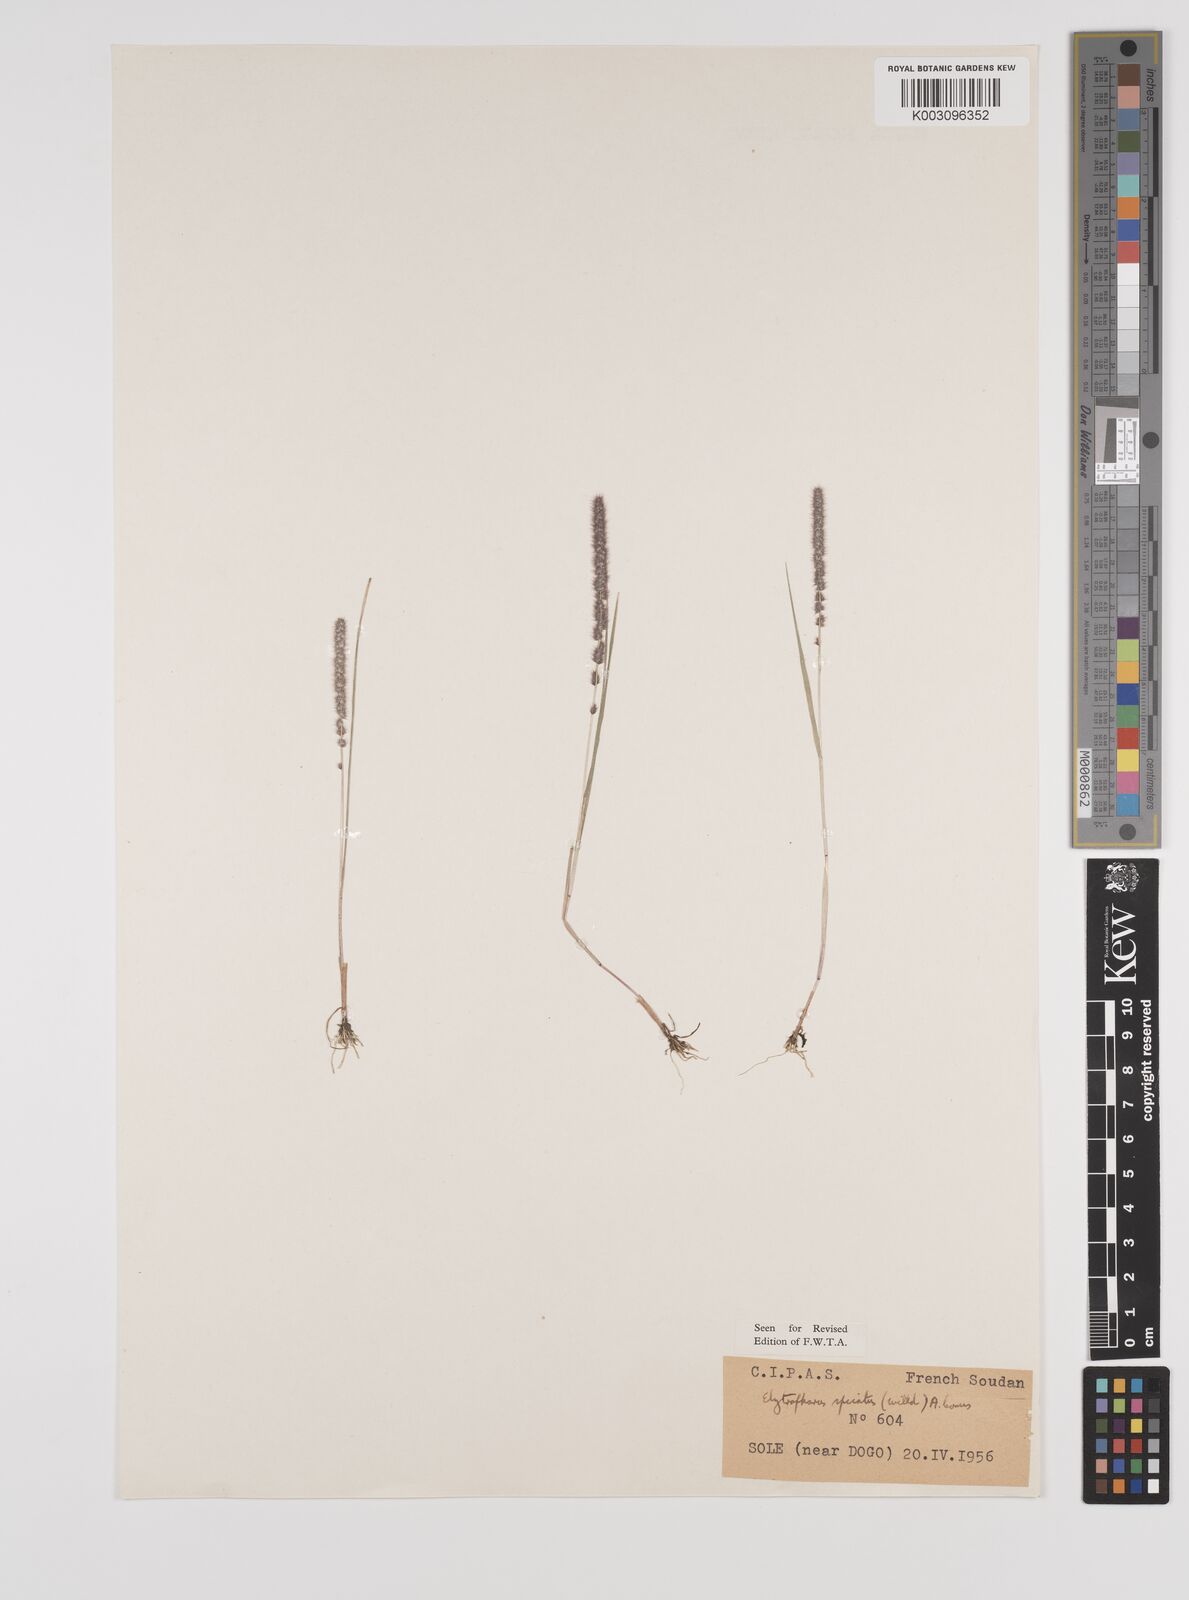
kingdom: Plantae
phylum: Tracheophyta
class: Liliopsida
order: Poales
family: Poaceae
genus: Elytrophorus
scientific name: Elytrophorus spicatus
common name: Spike grass
